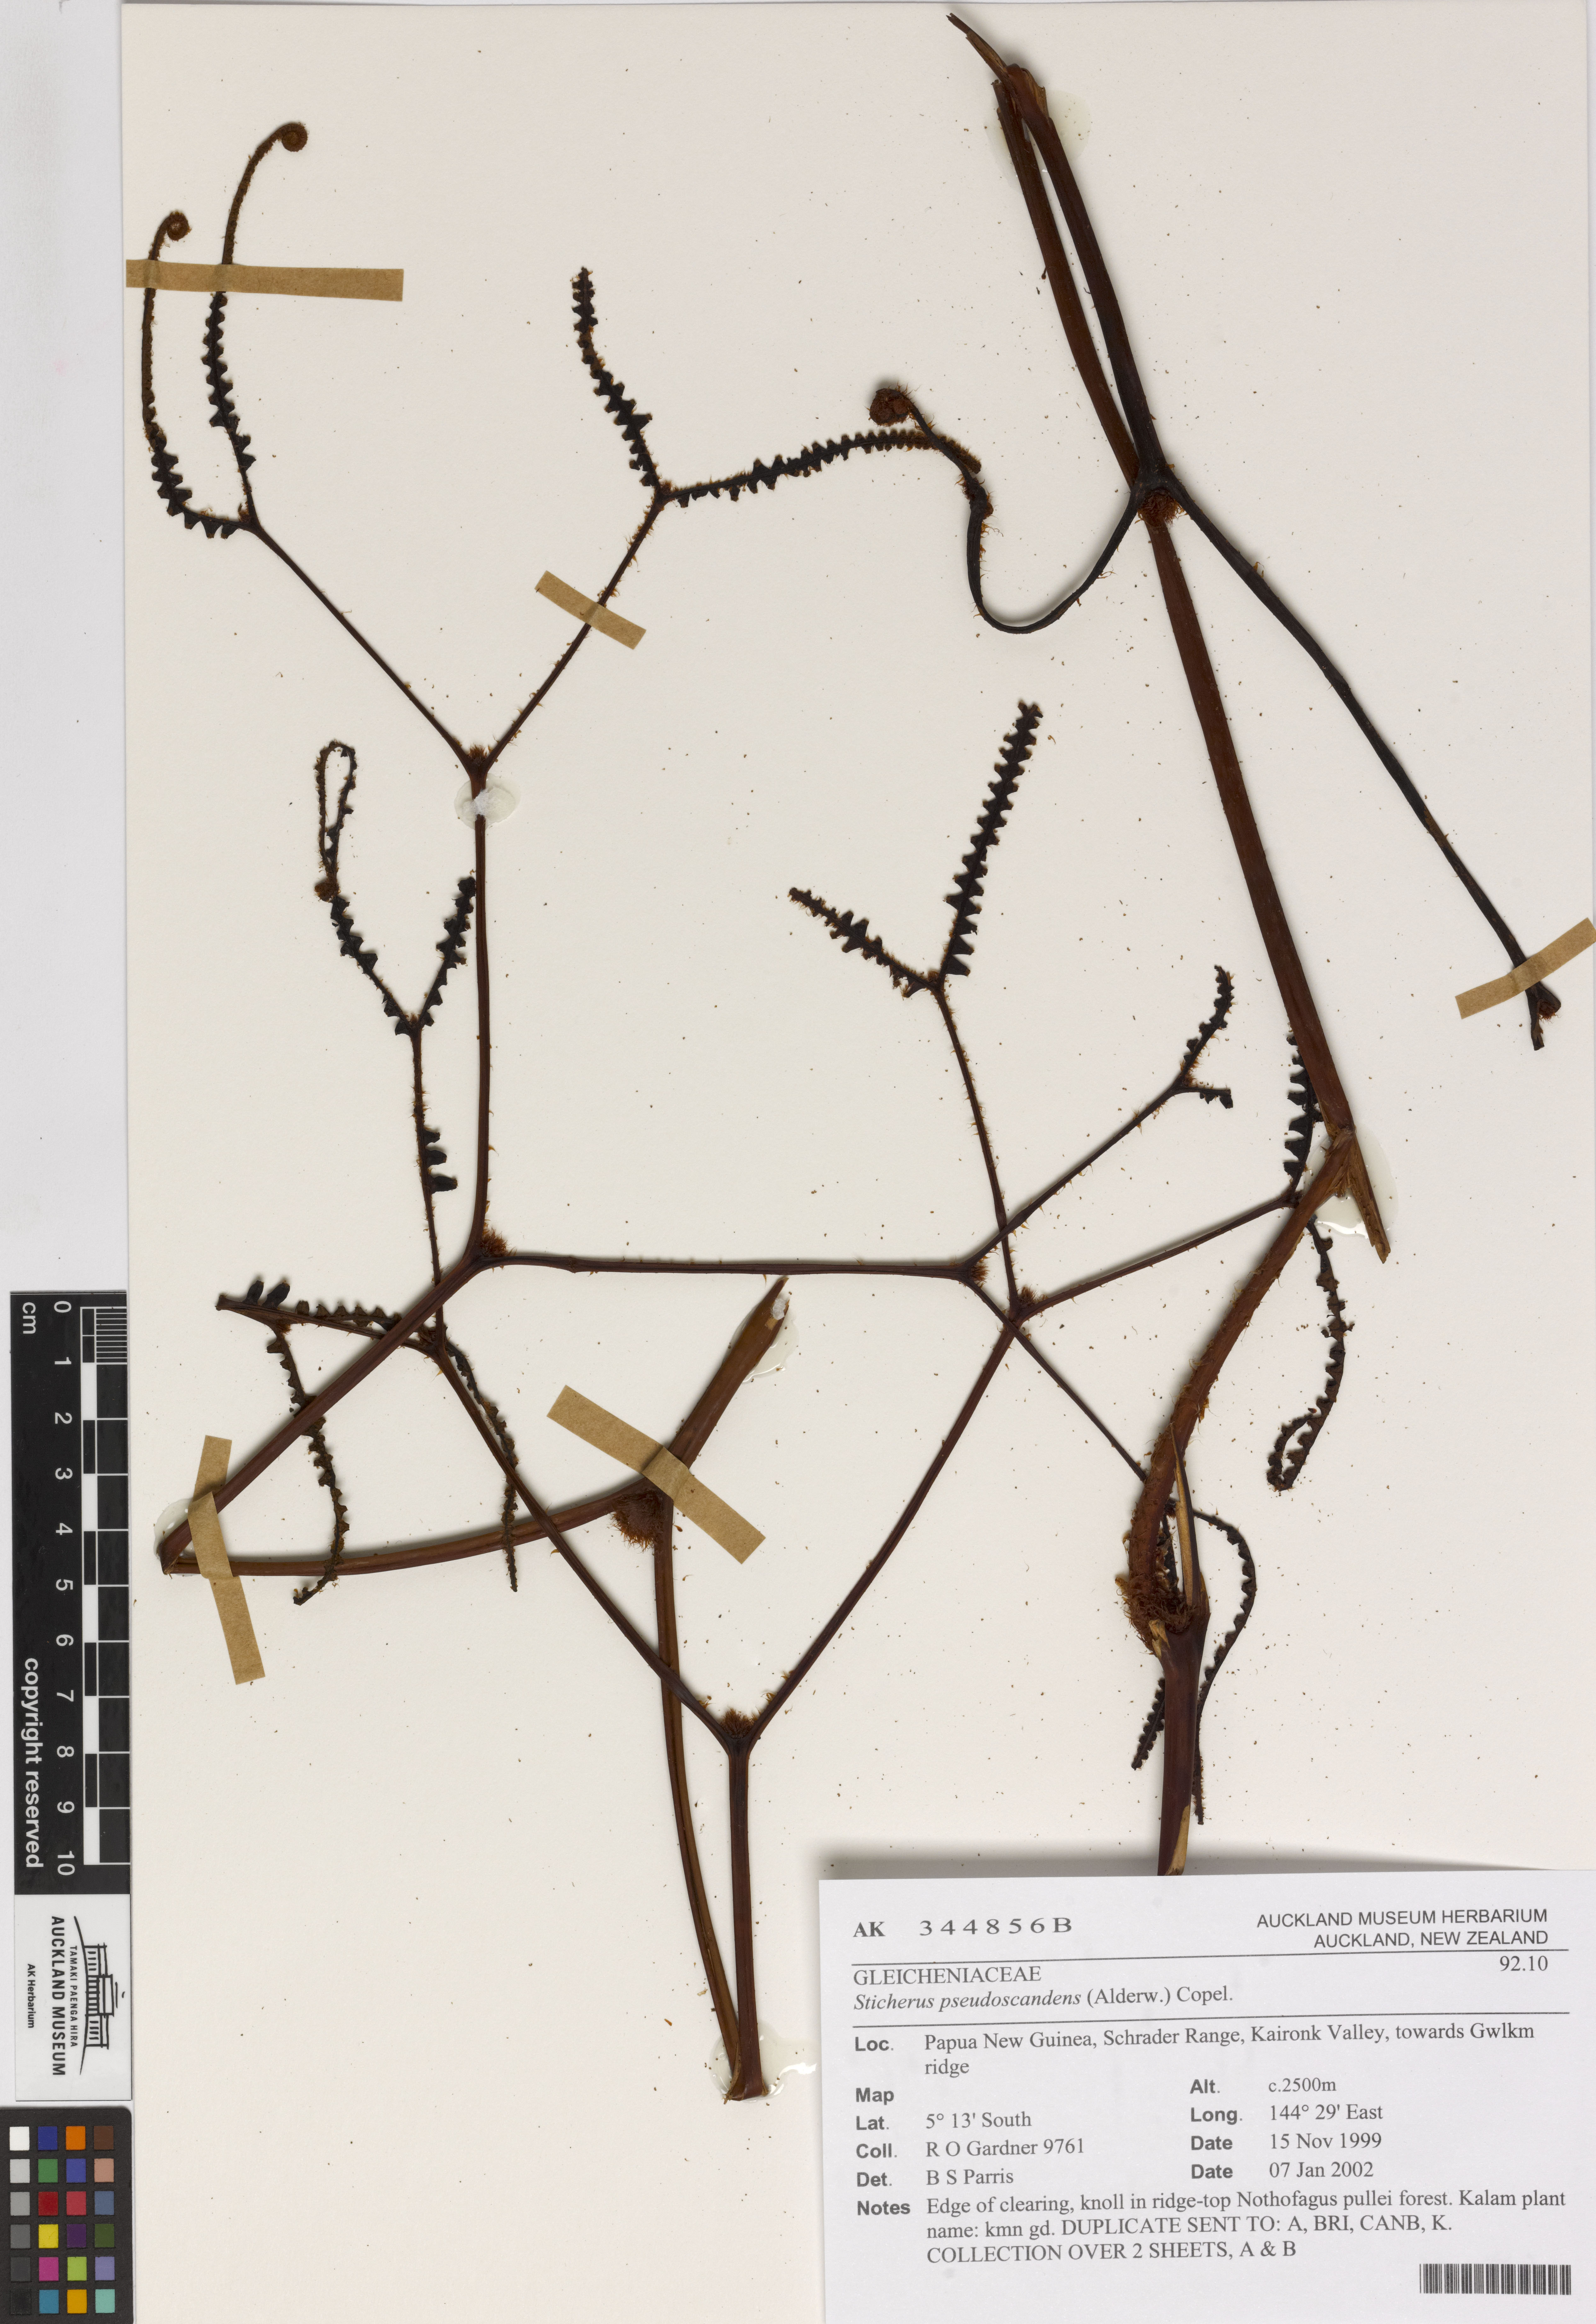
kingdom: Plantae
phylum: Tracheophyta
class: Polypodiopsida
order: Gleicheniales
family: Gleicheniaceae
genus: Sticherus
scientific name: Sticherus pseudoscandens
